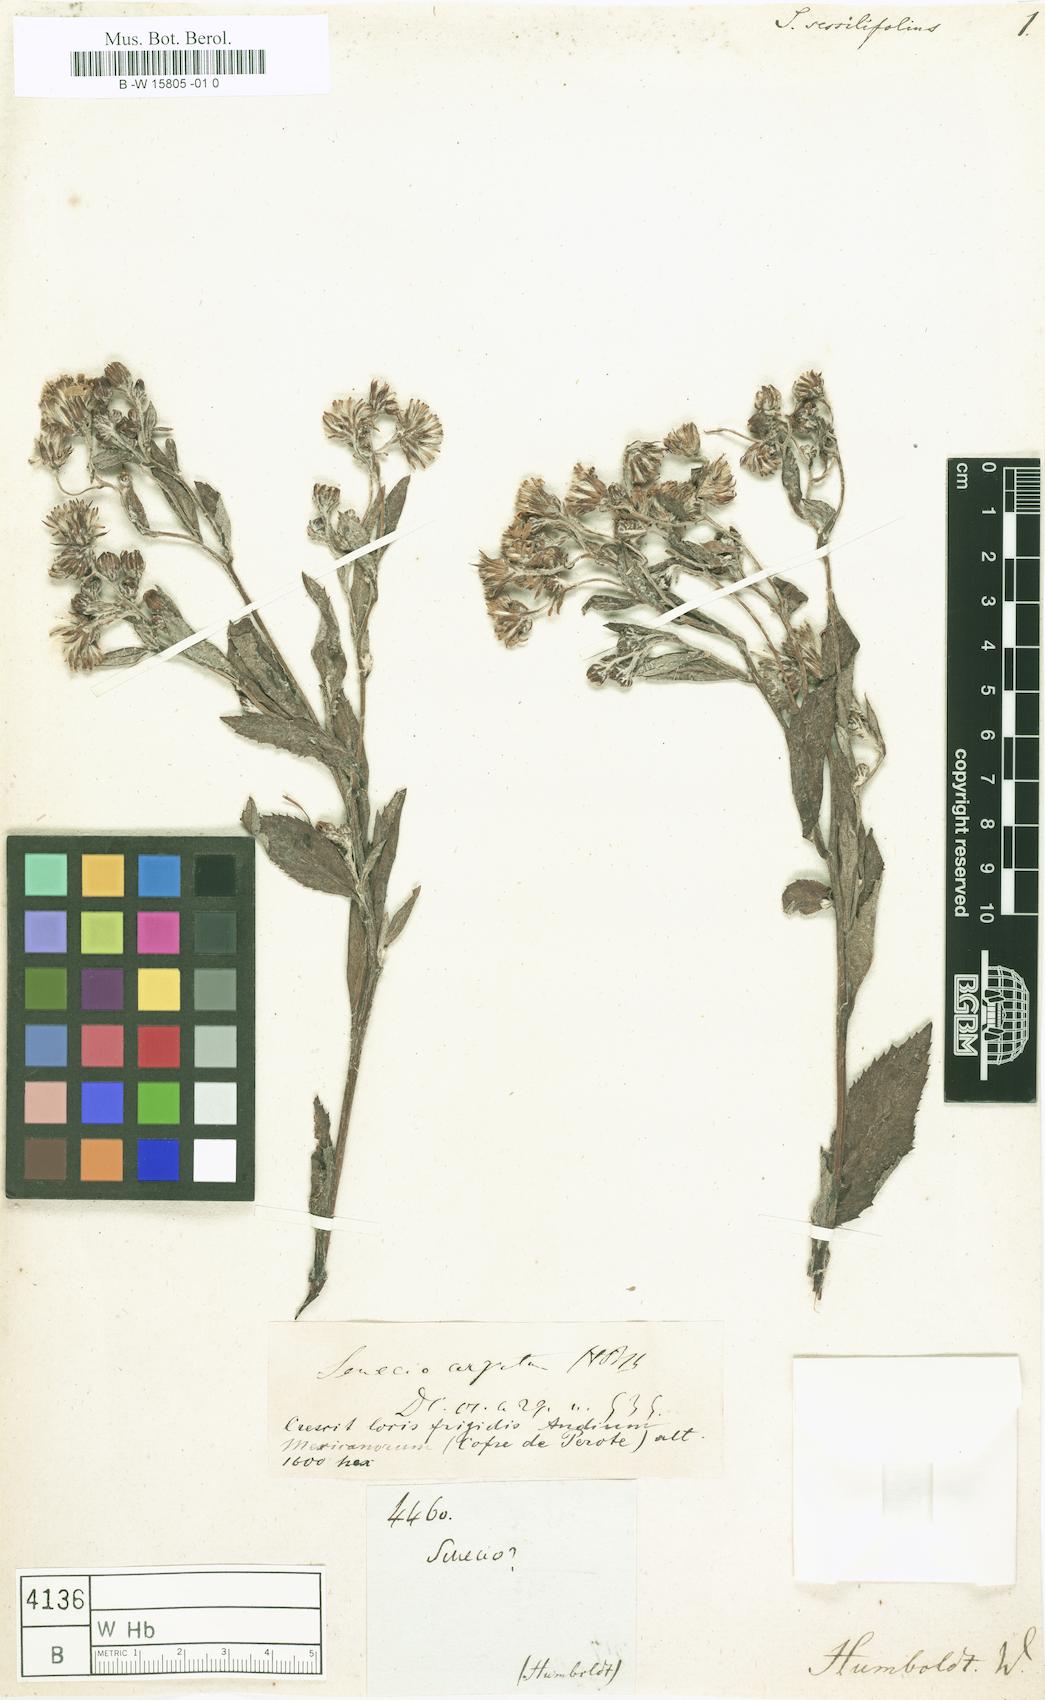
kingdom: Plantae
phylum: Tracheophyta
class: Magnoliopsida
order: Asterales
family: Asteraceae
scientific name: Asteraceae
